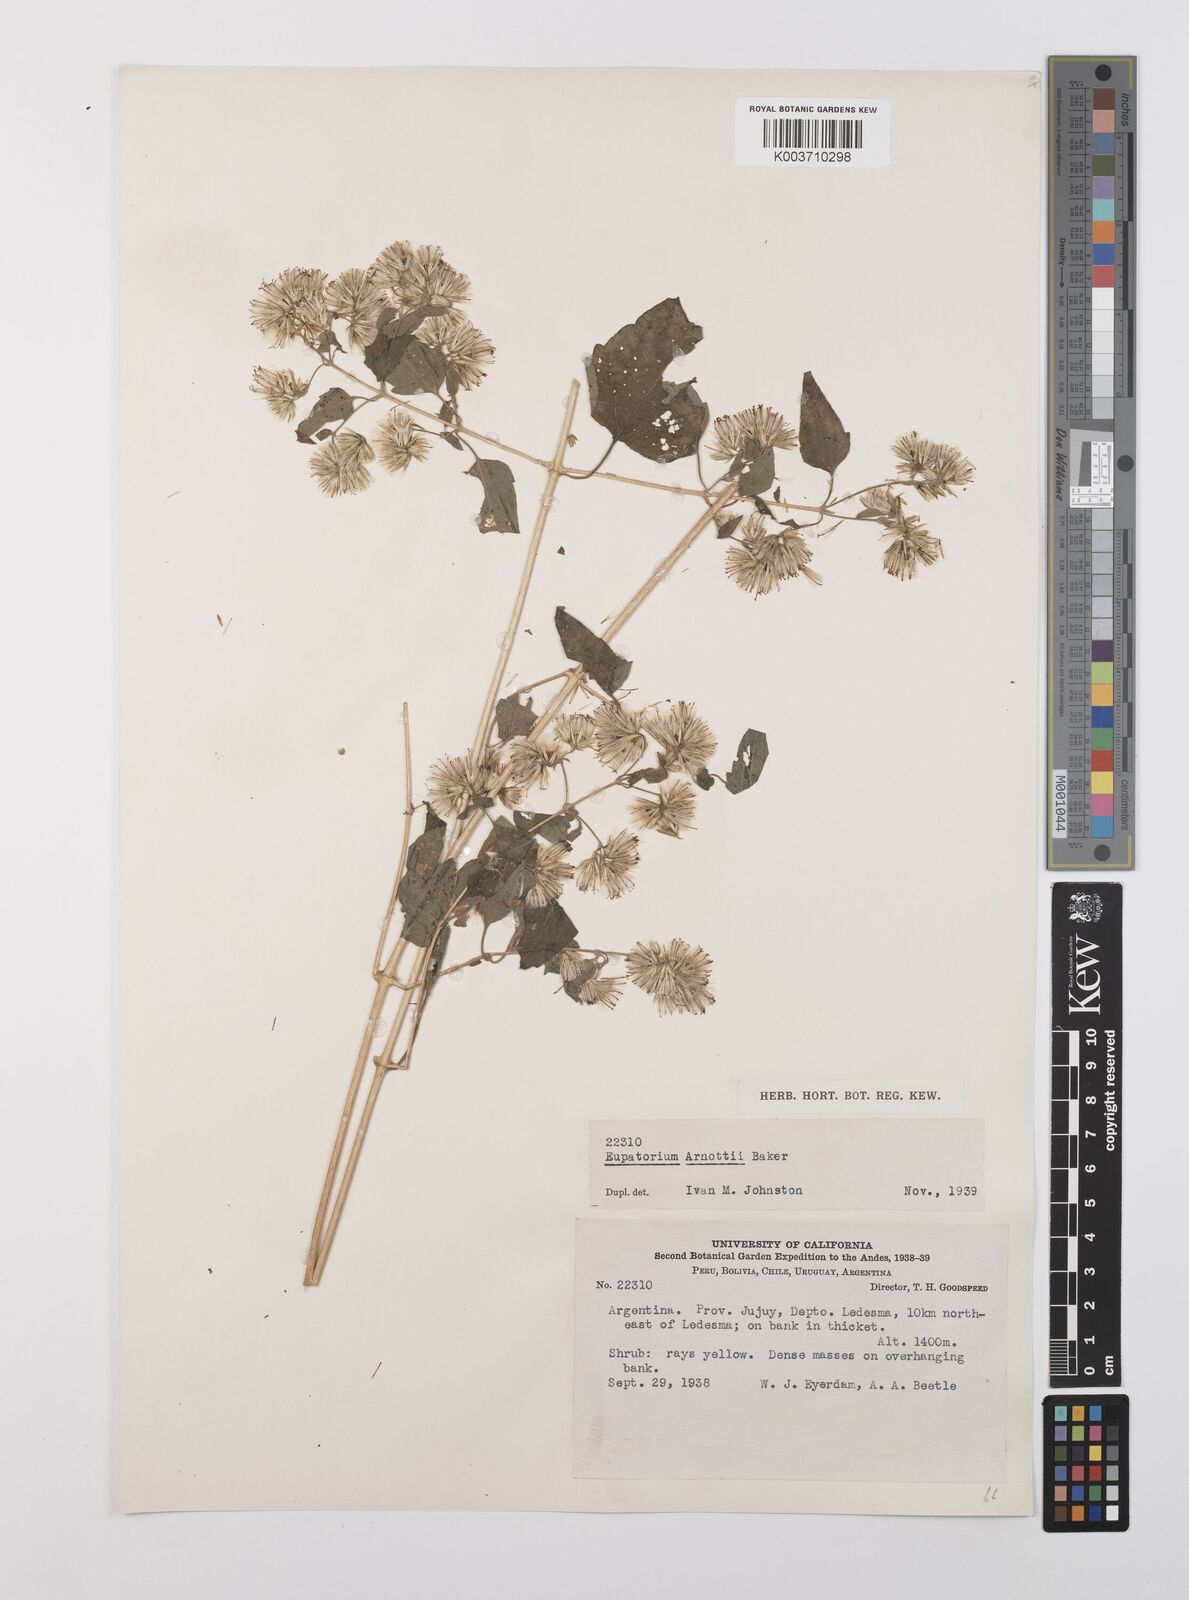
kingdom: Plantae
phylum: Tracheophyta
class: Magnoliopsida
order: Asterales
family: Asteraceae
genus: Austrobrickellia
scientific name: Austrobrickellia arnottii
